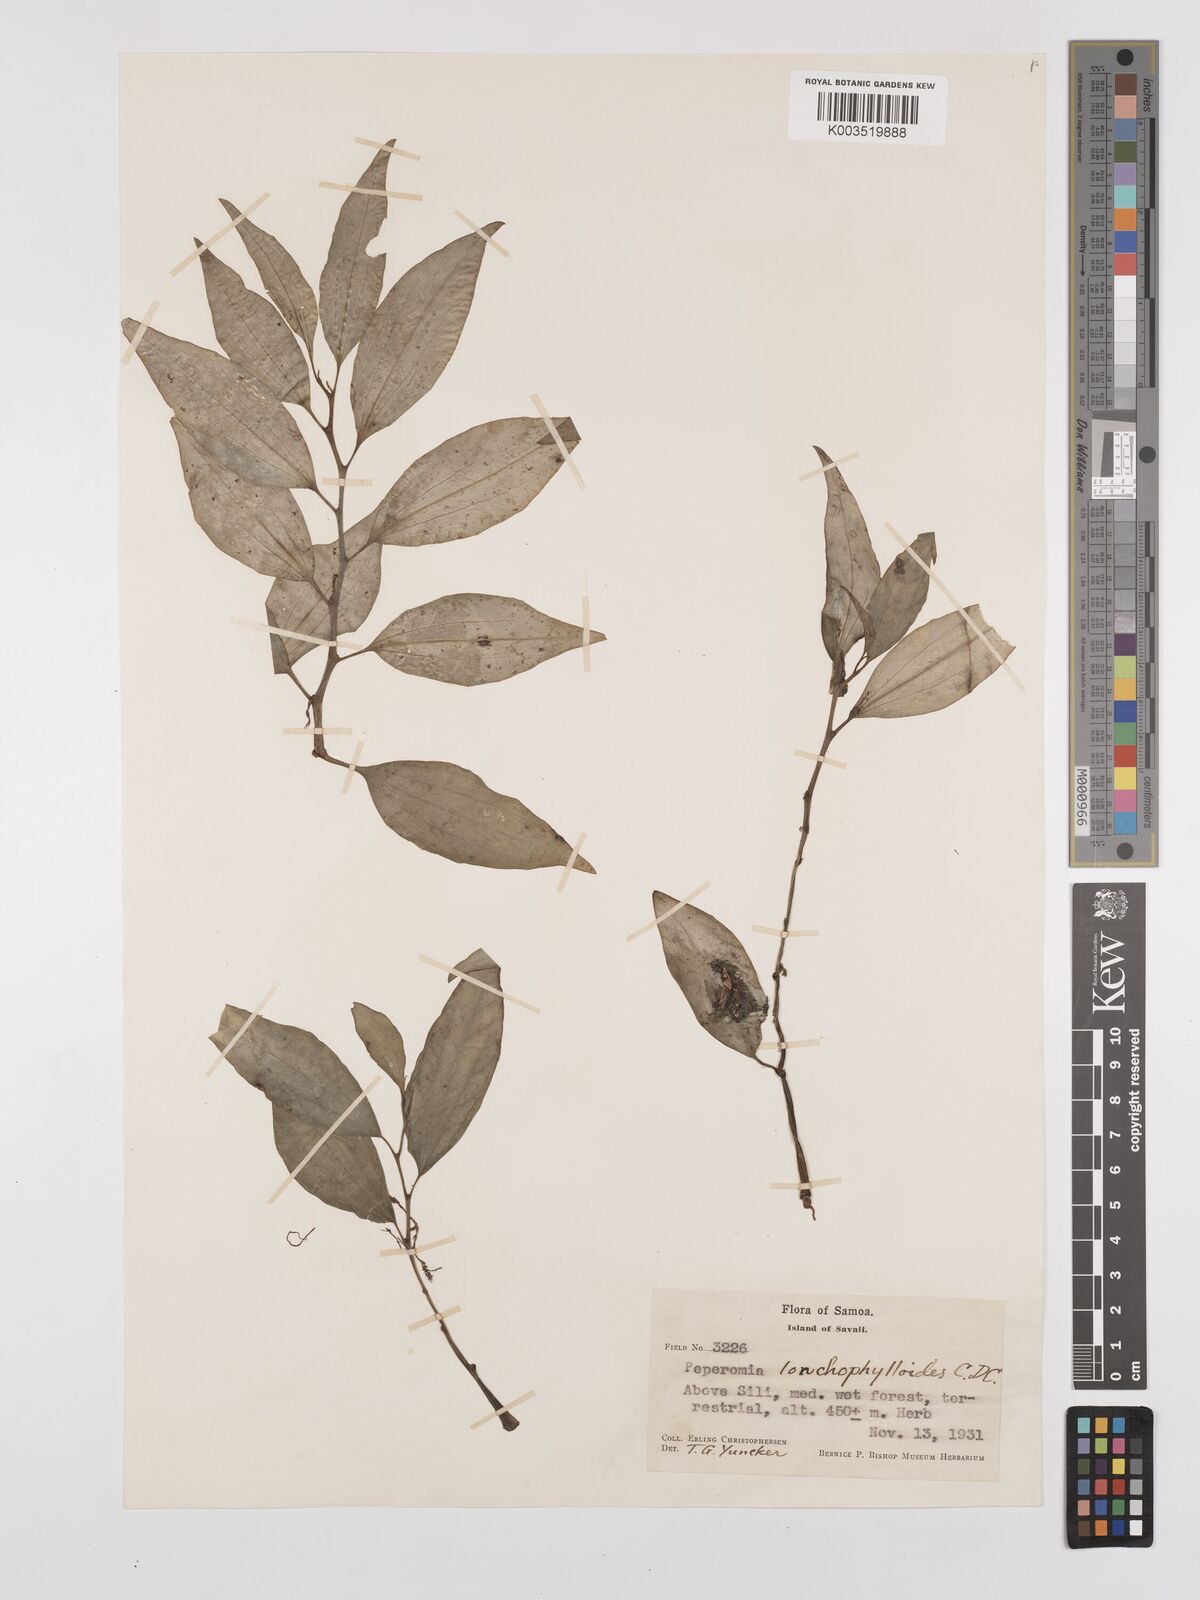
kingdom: Plantae
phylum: Tracheophyta
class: Magnoliopsida
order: Piperales
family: Piperaceae
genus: Peperomia
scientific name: Peperomia oahuensis
